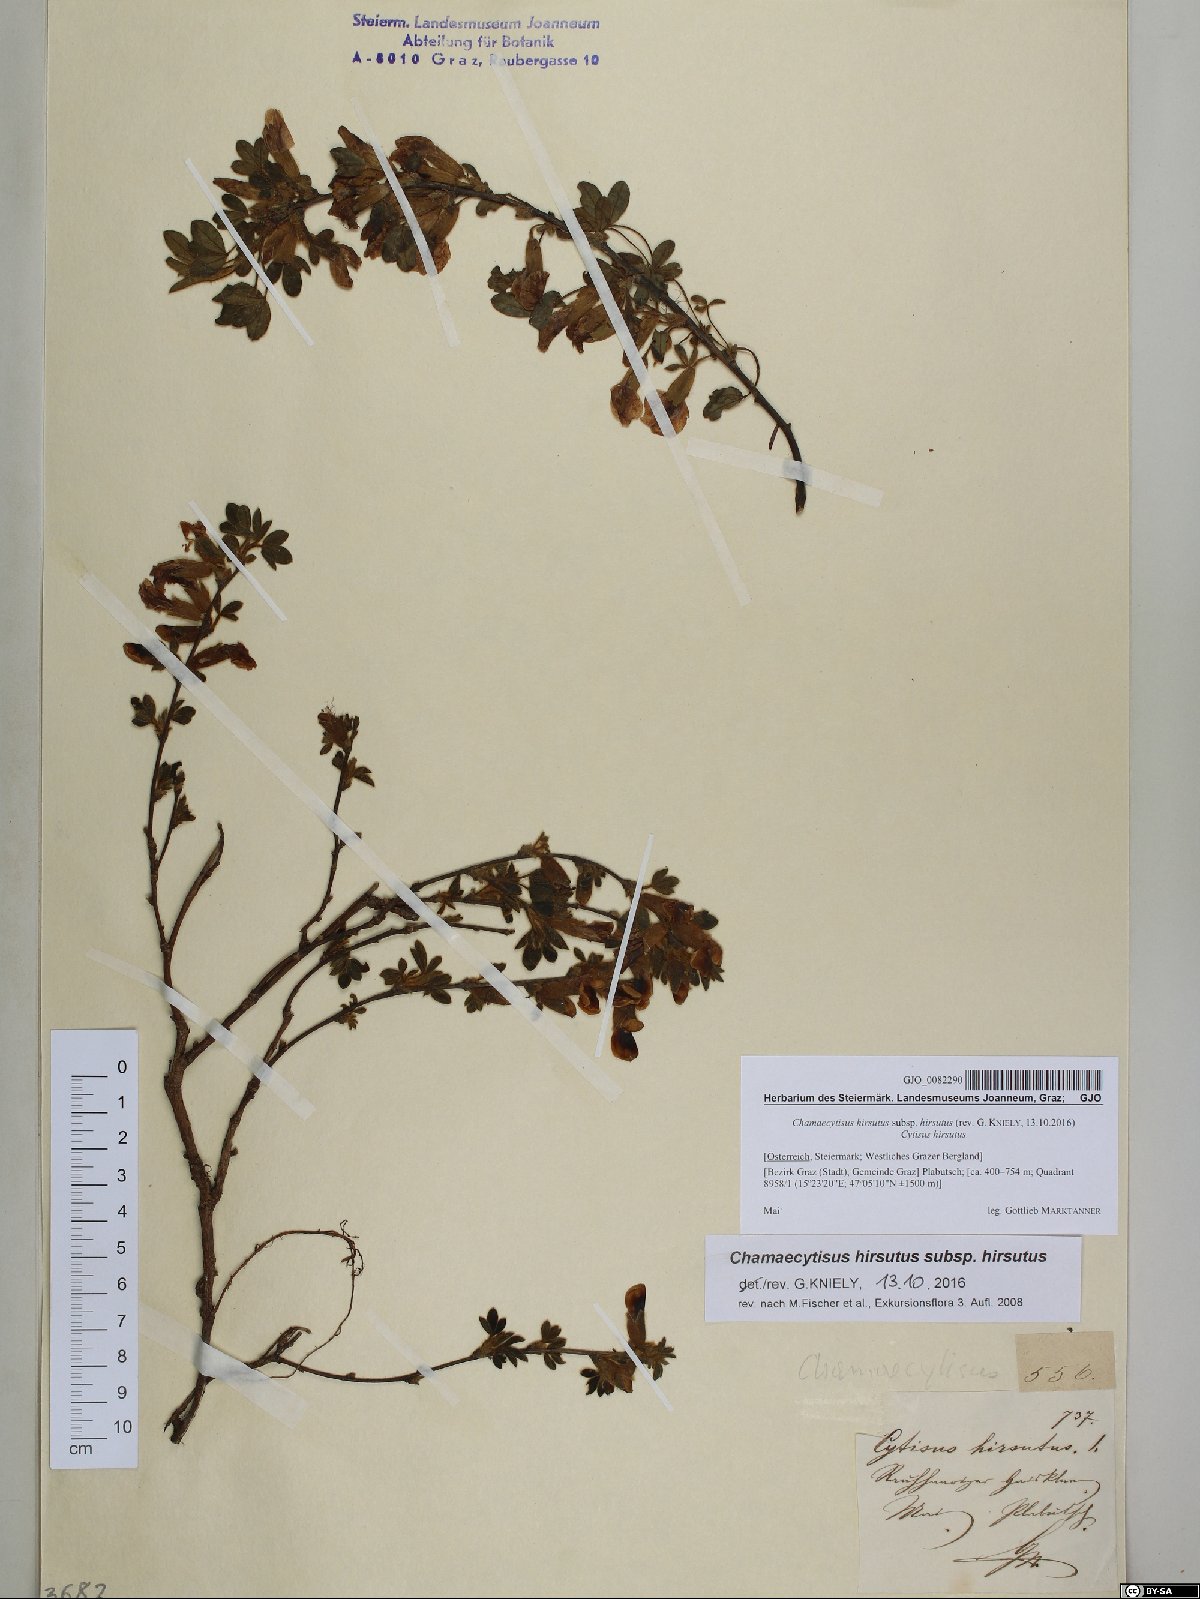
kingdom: Plantae
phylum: Tracheophyta
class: Magnoliopsida
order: Fabales
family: Fabaceae
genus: Chamaecytisus
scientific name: Chamaecytisus hirsutus
